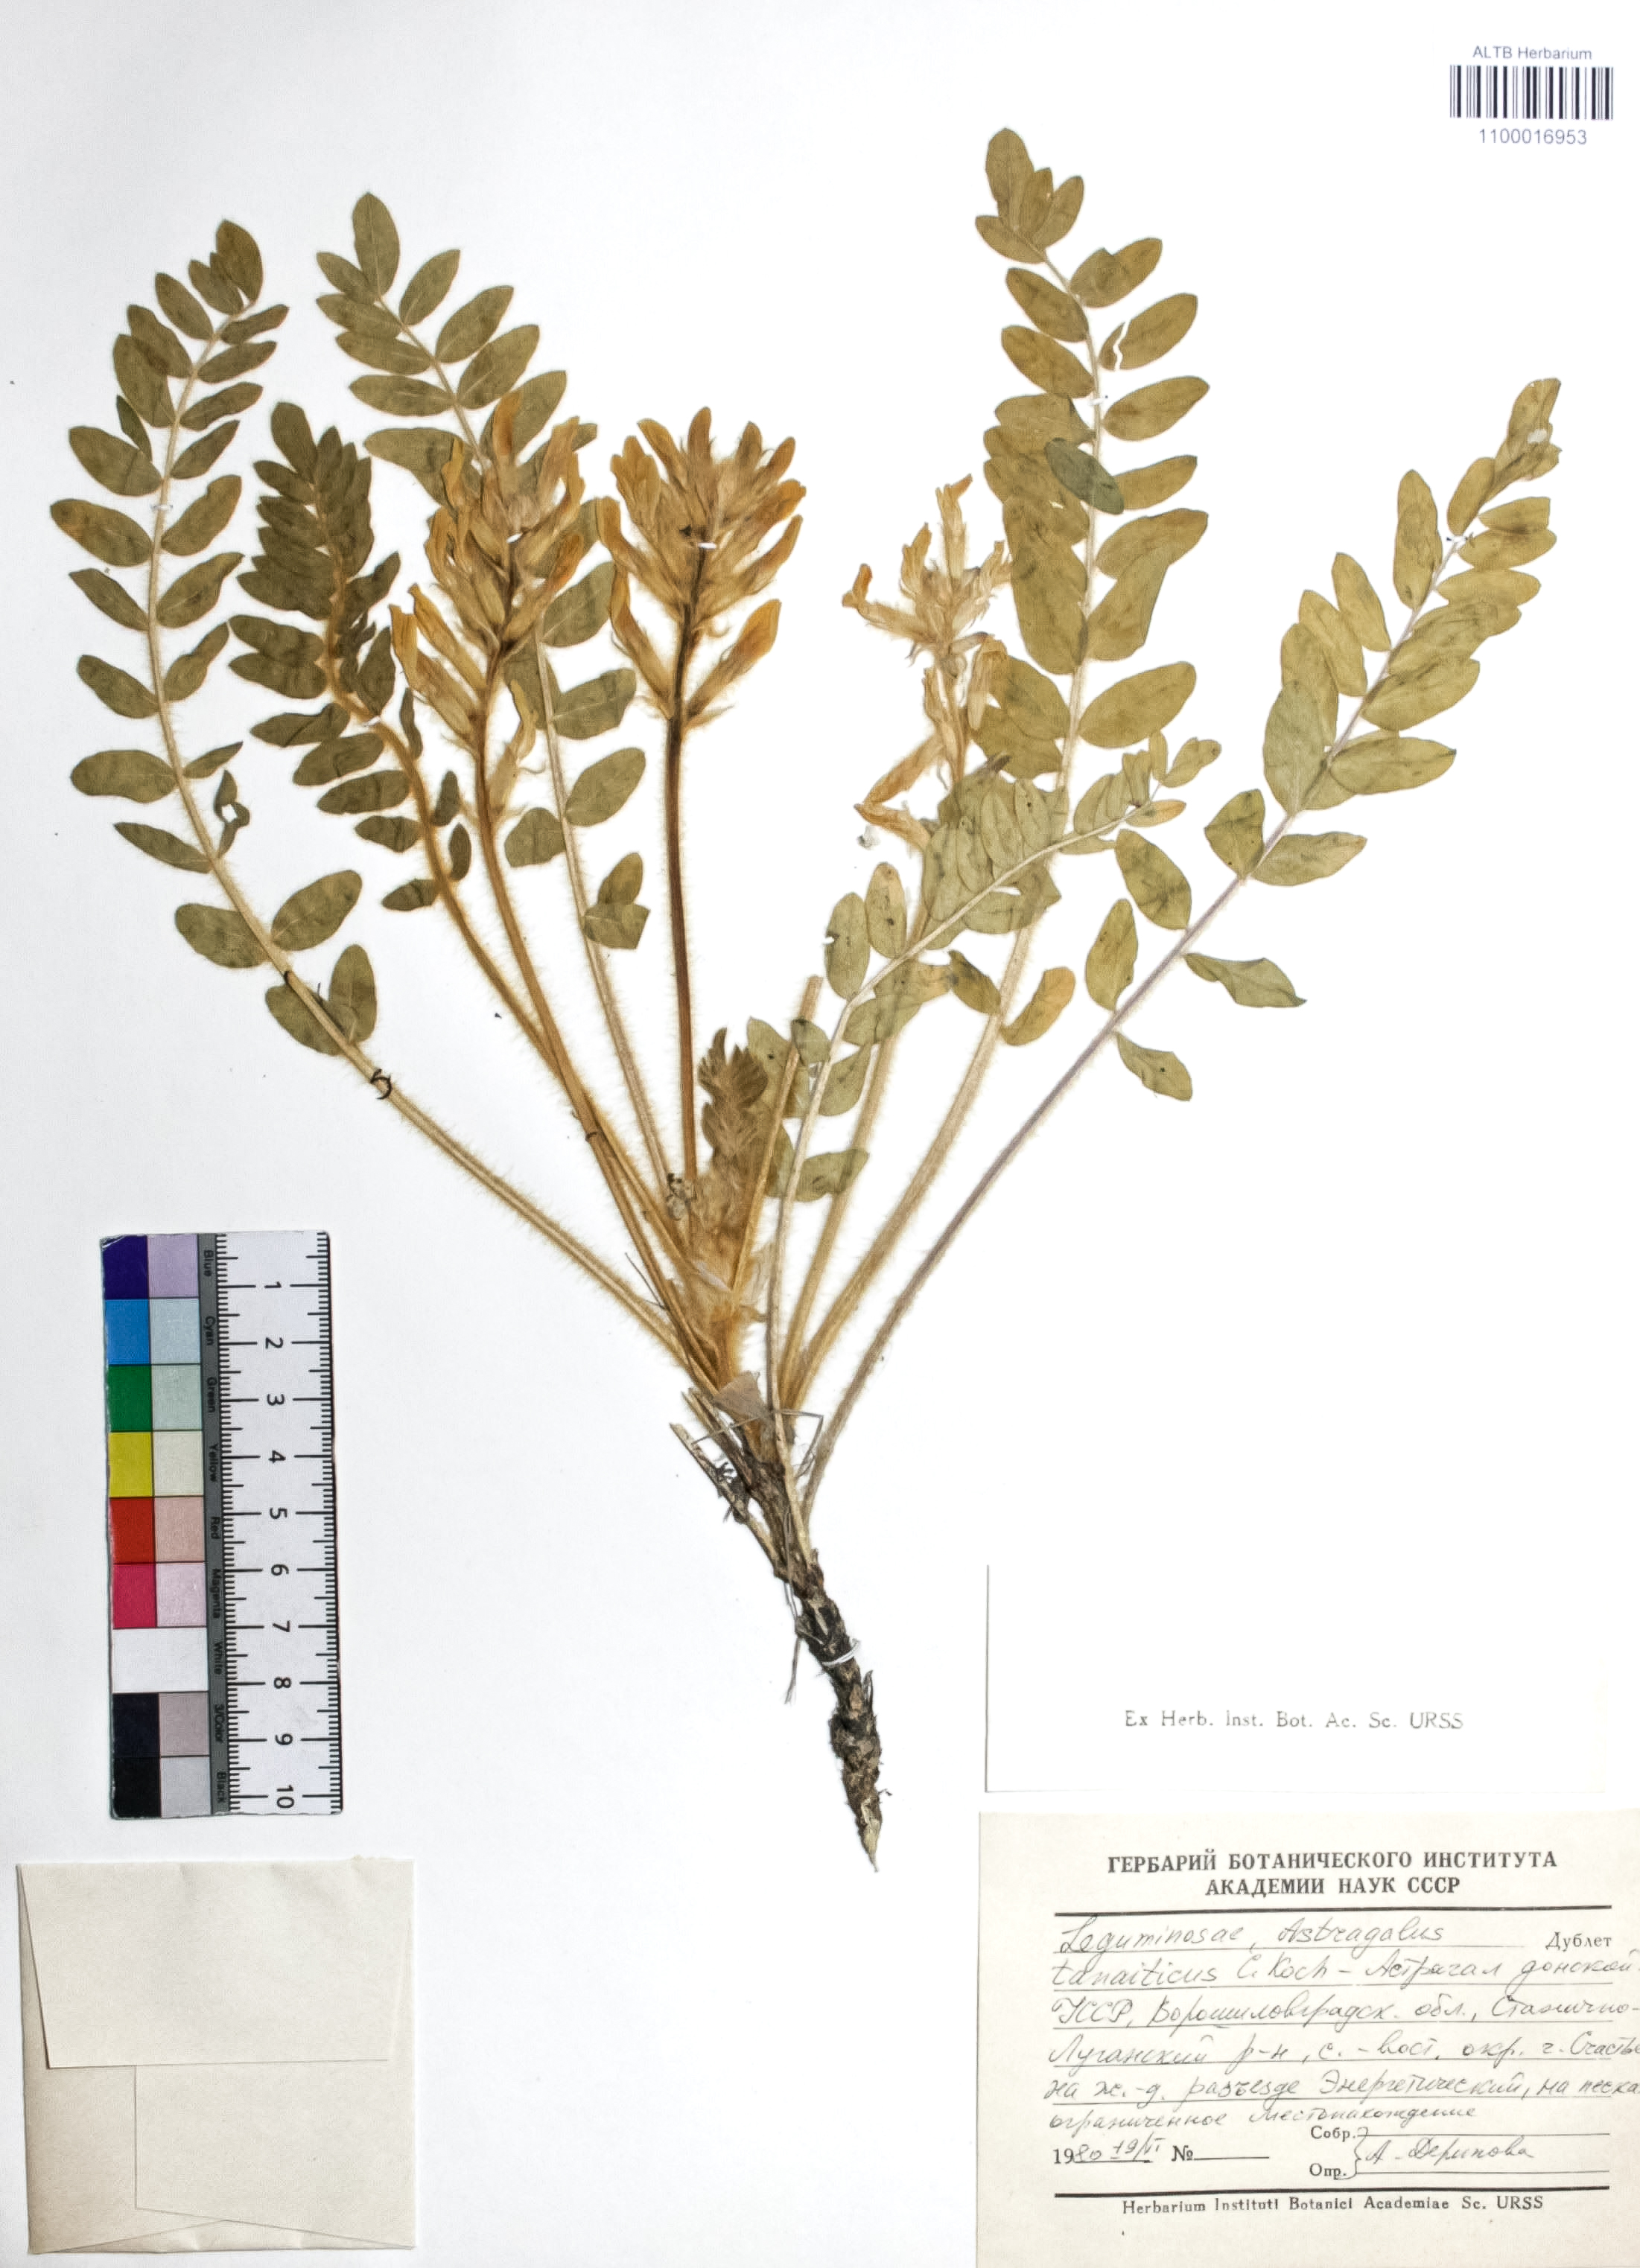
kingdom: Plantae
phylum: Tracheophyta
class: Magnoliopsida
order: Fabales
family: Fabaceae
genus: Astragalus
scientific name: Astragalus tanaiticus
